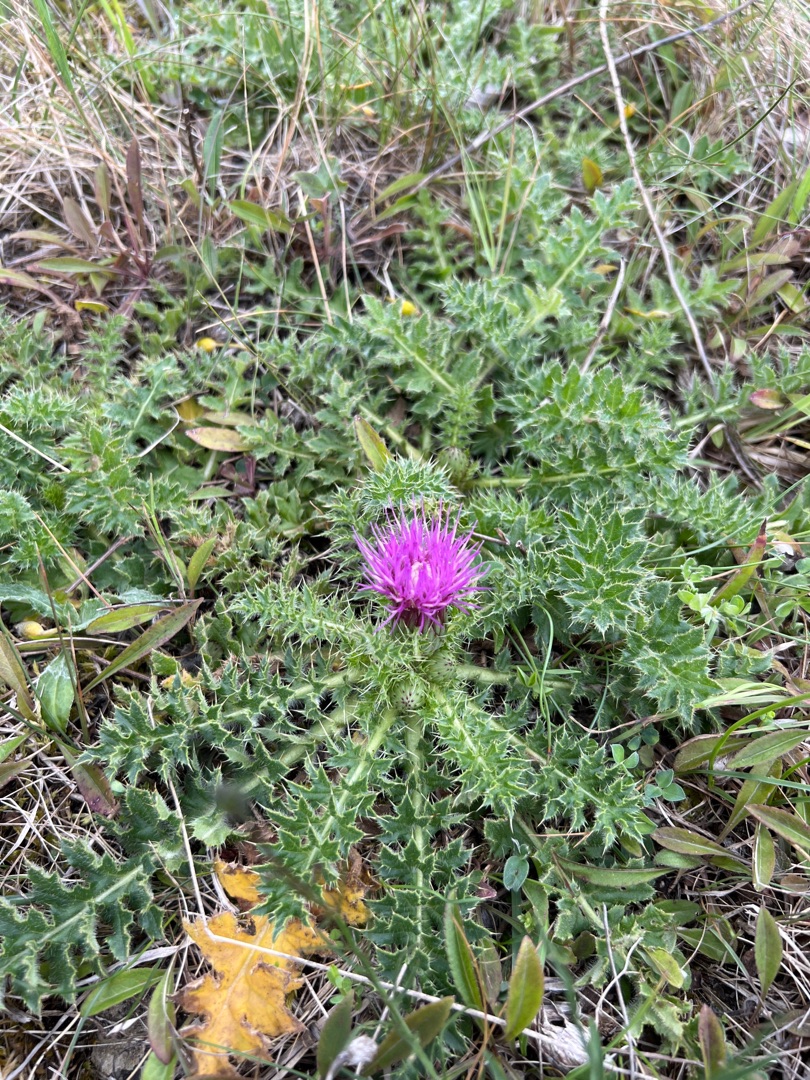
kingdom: Plantae
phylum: Tracheophyta
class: Magnoliopsida
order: Asterales
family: Asteraceae
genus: Cirsium
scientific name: Cirsium acaule
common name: Lav tidsel
